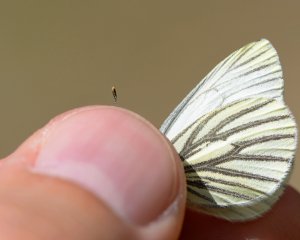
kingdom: Animalia
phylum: Arthropoda
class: Insecta
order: Lepidoptera
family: Pieridae
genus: Pieris
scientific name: Pieris oleracea
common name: Mustard White
